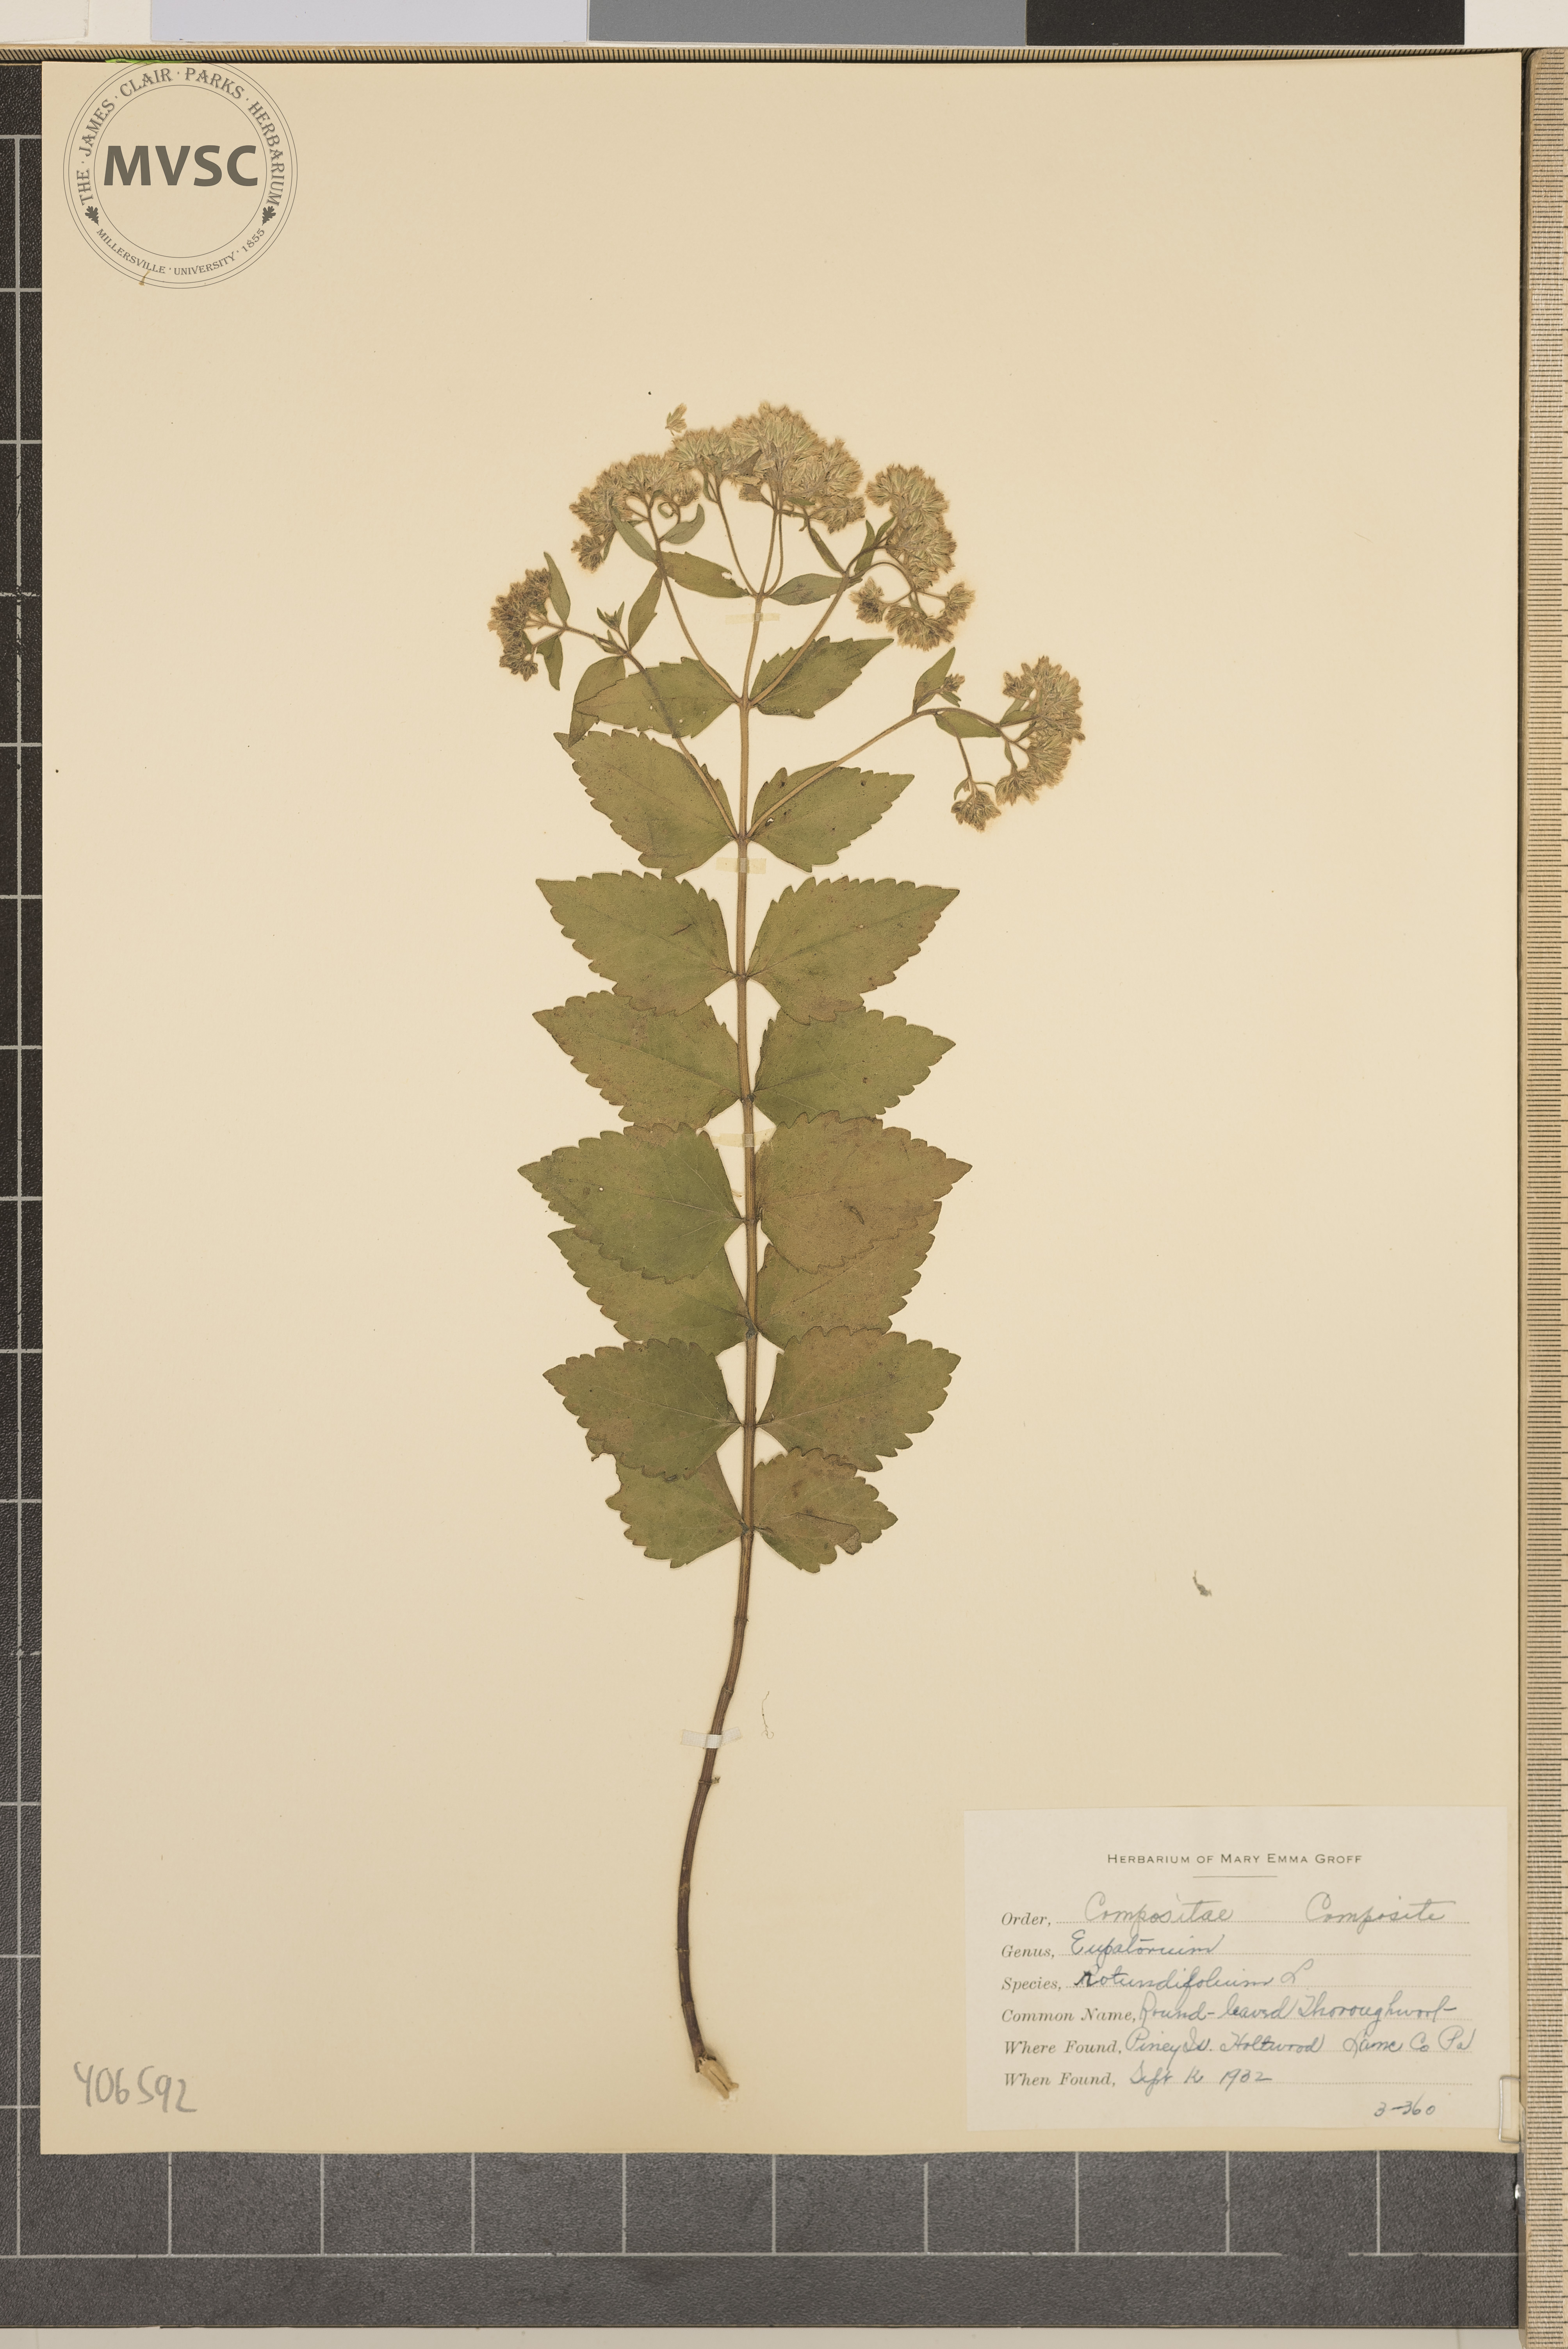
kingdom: Plantae
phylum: Tracheophyta
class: Magnoliopsida
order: Asterales
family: Asteraceae
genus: Eupatorium
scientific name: Eupatorium rotundifolium
